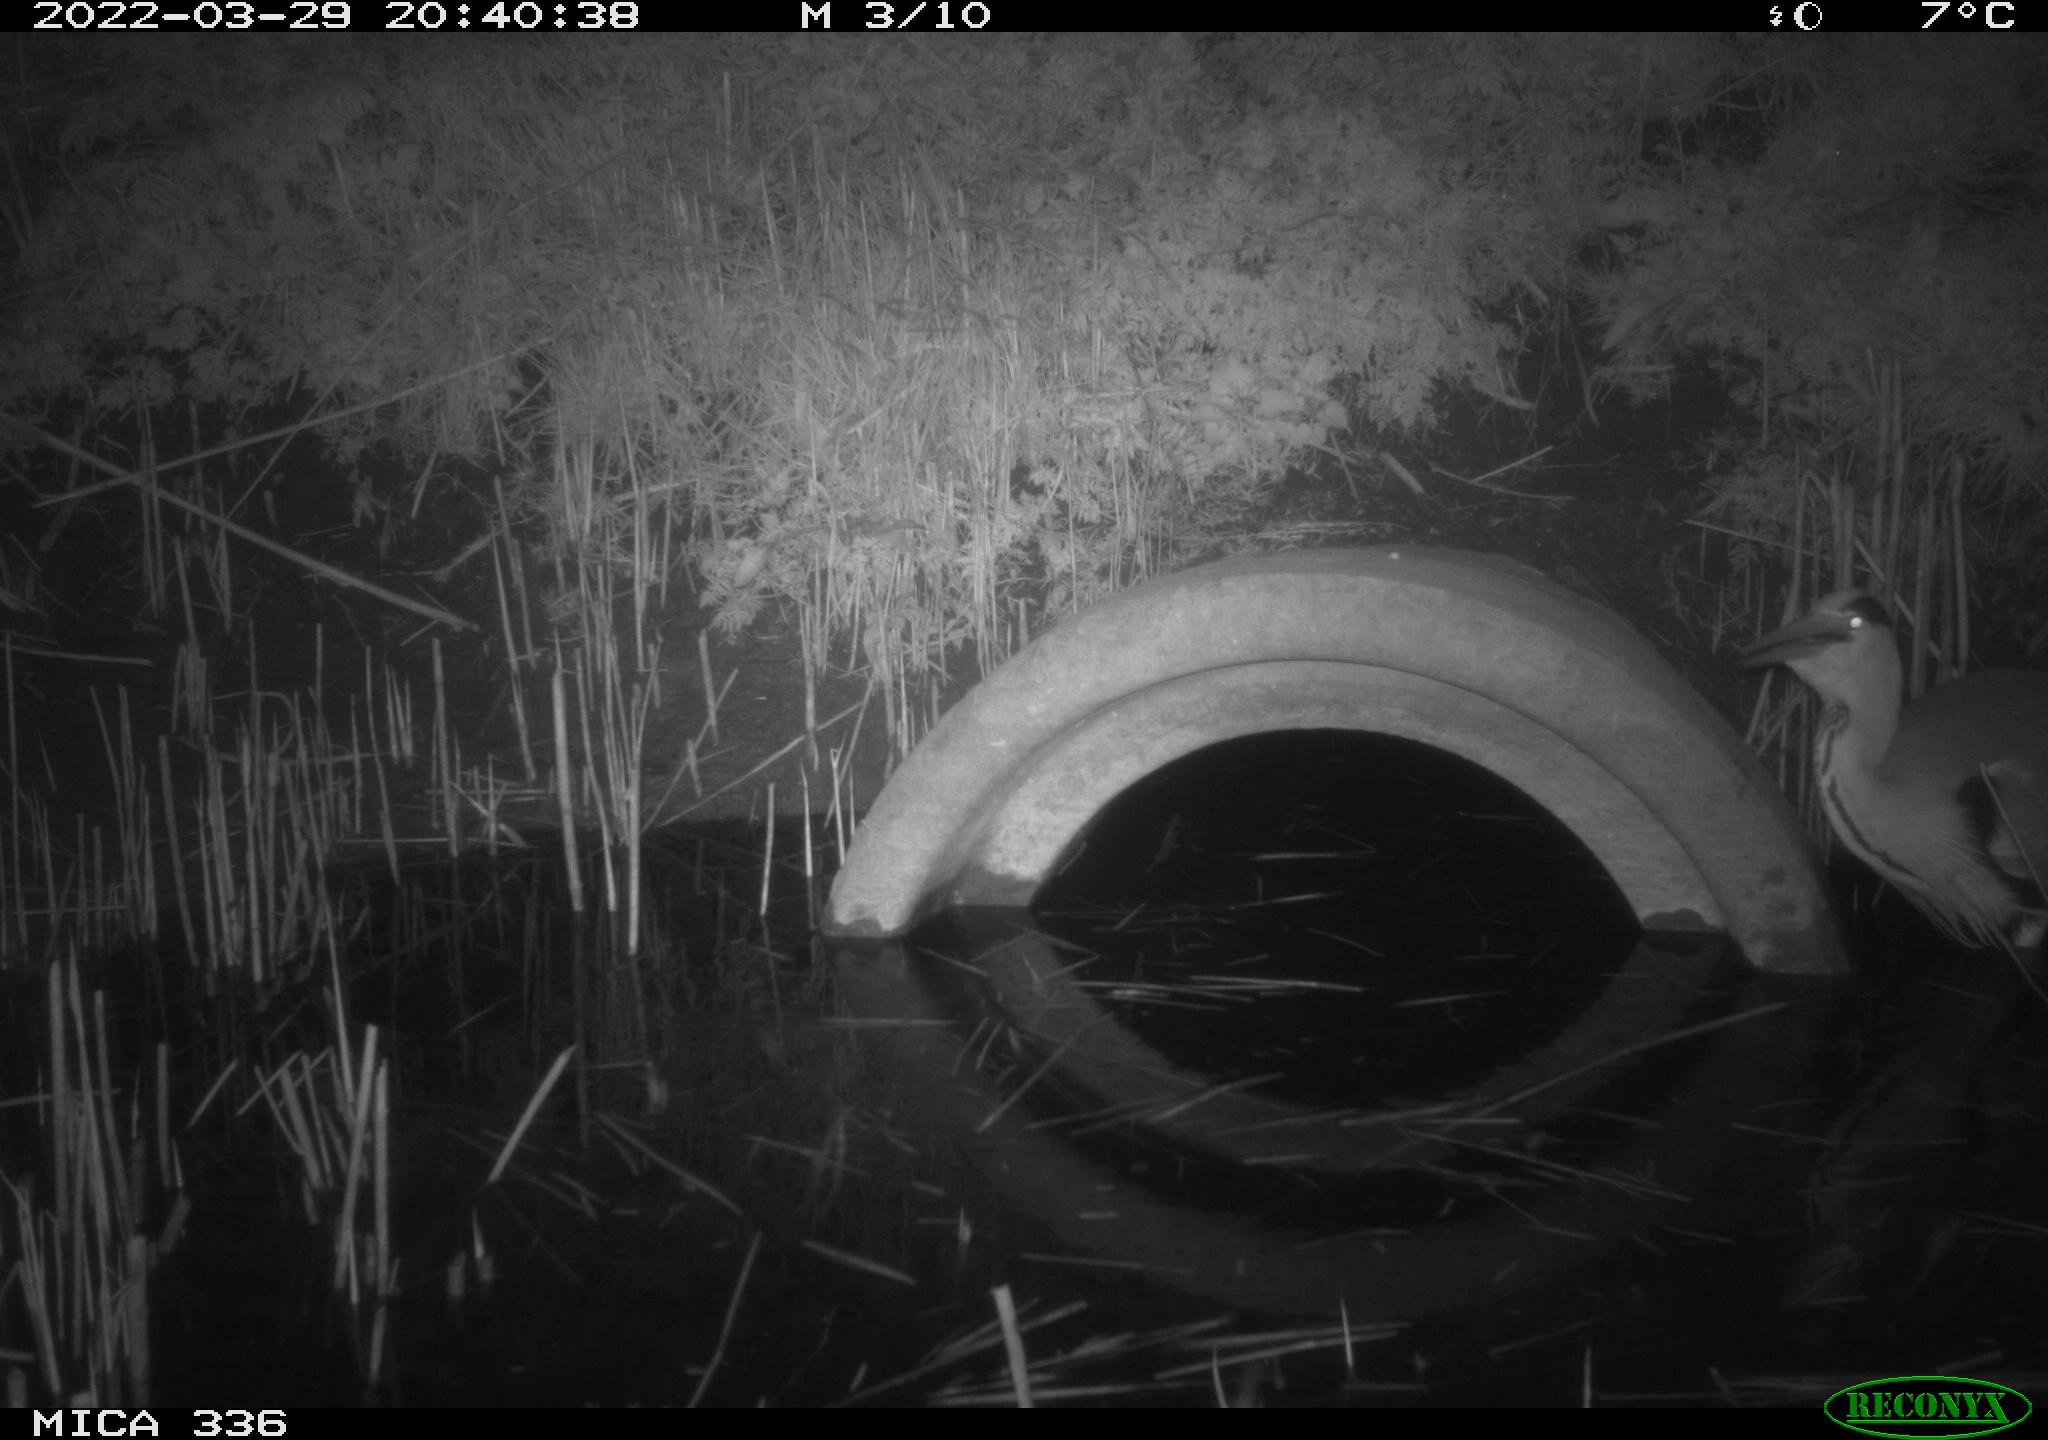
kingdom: Animalia
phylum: Chordata
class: Aves
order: Pelecaniformes
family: Ardeidae
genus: Ardea
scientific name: Ardea cinerea
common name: Grey heron
